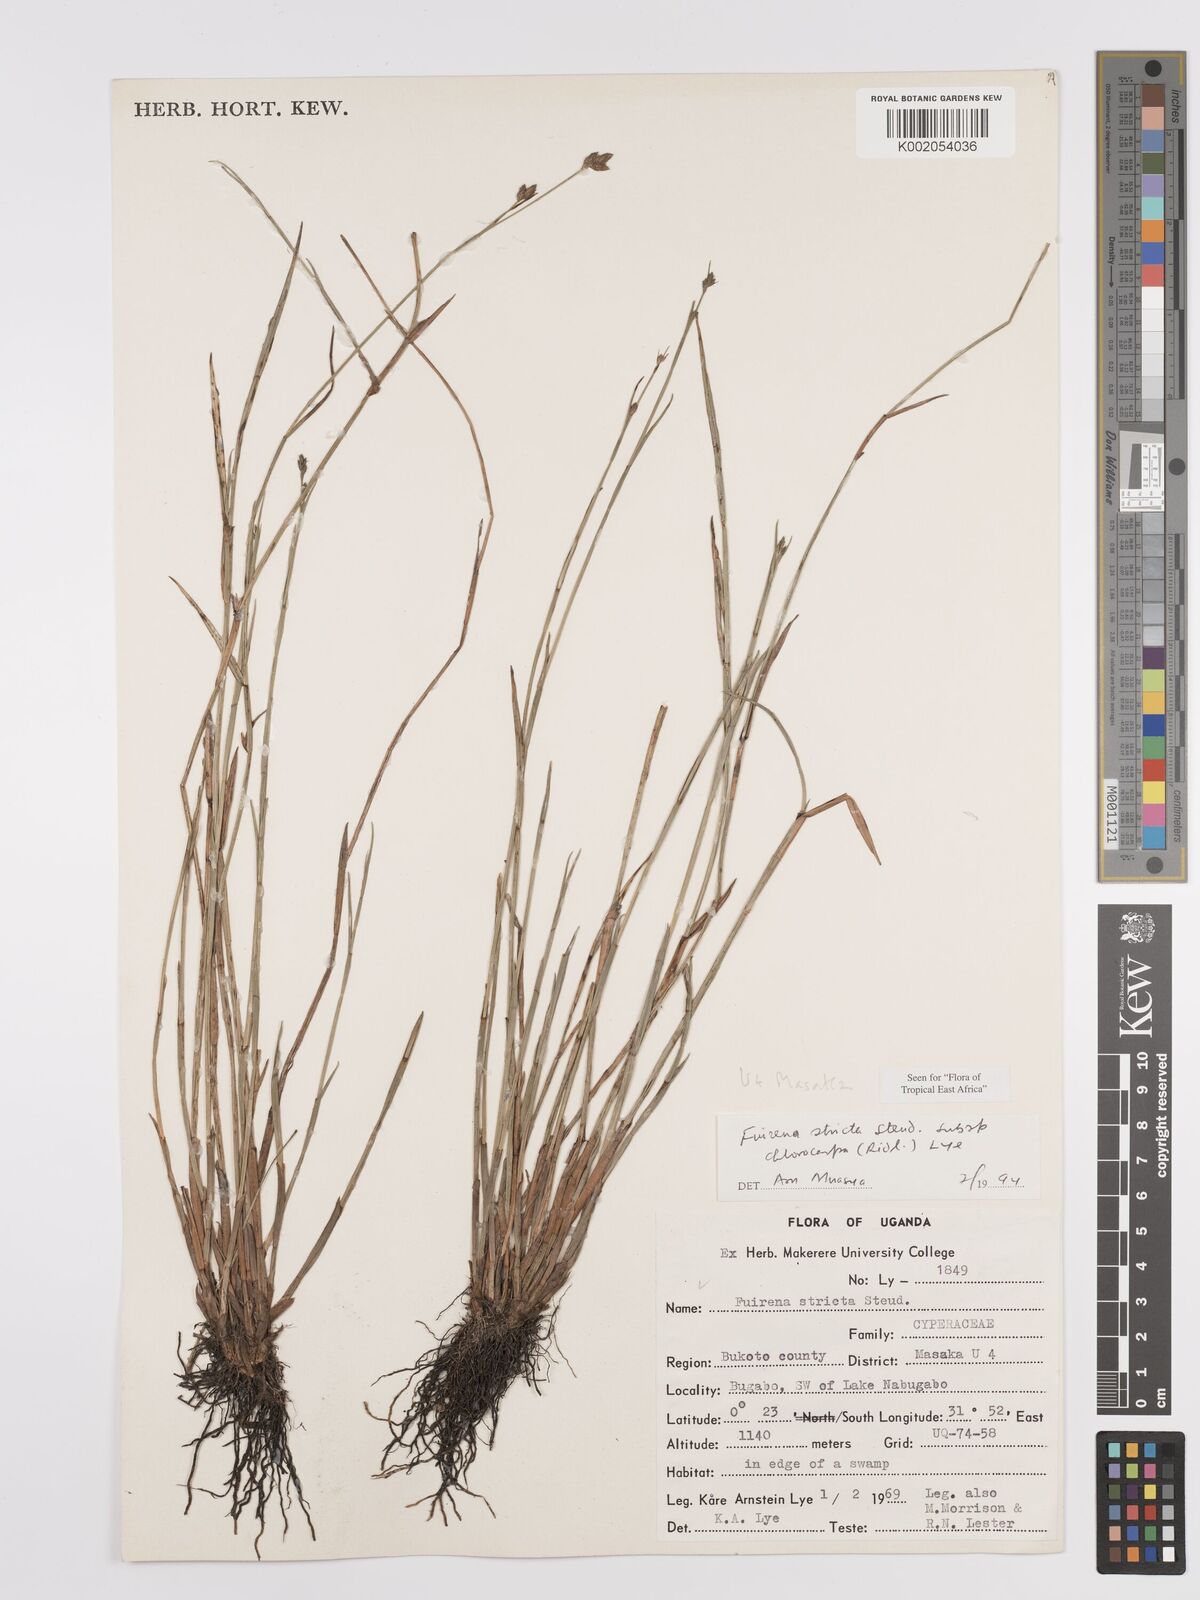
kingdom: Plantae
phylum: Tracheophyta
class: Liliopsida
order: Poales
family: Cyperaceae
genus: Fuirena
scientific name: Fuirena stricta
